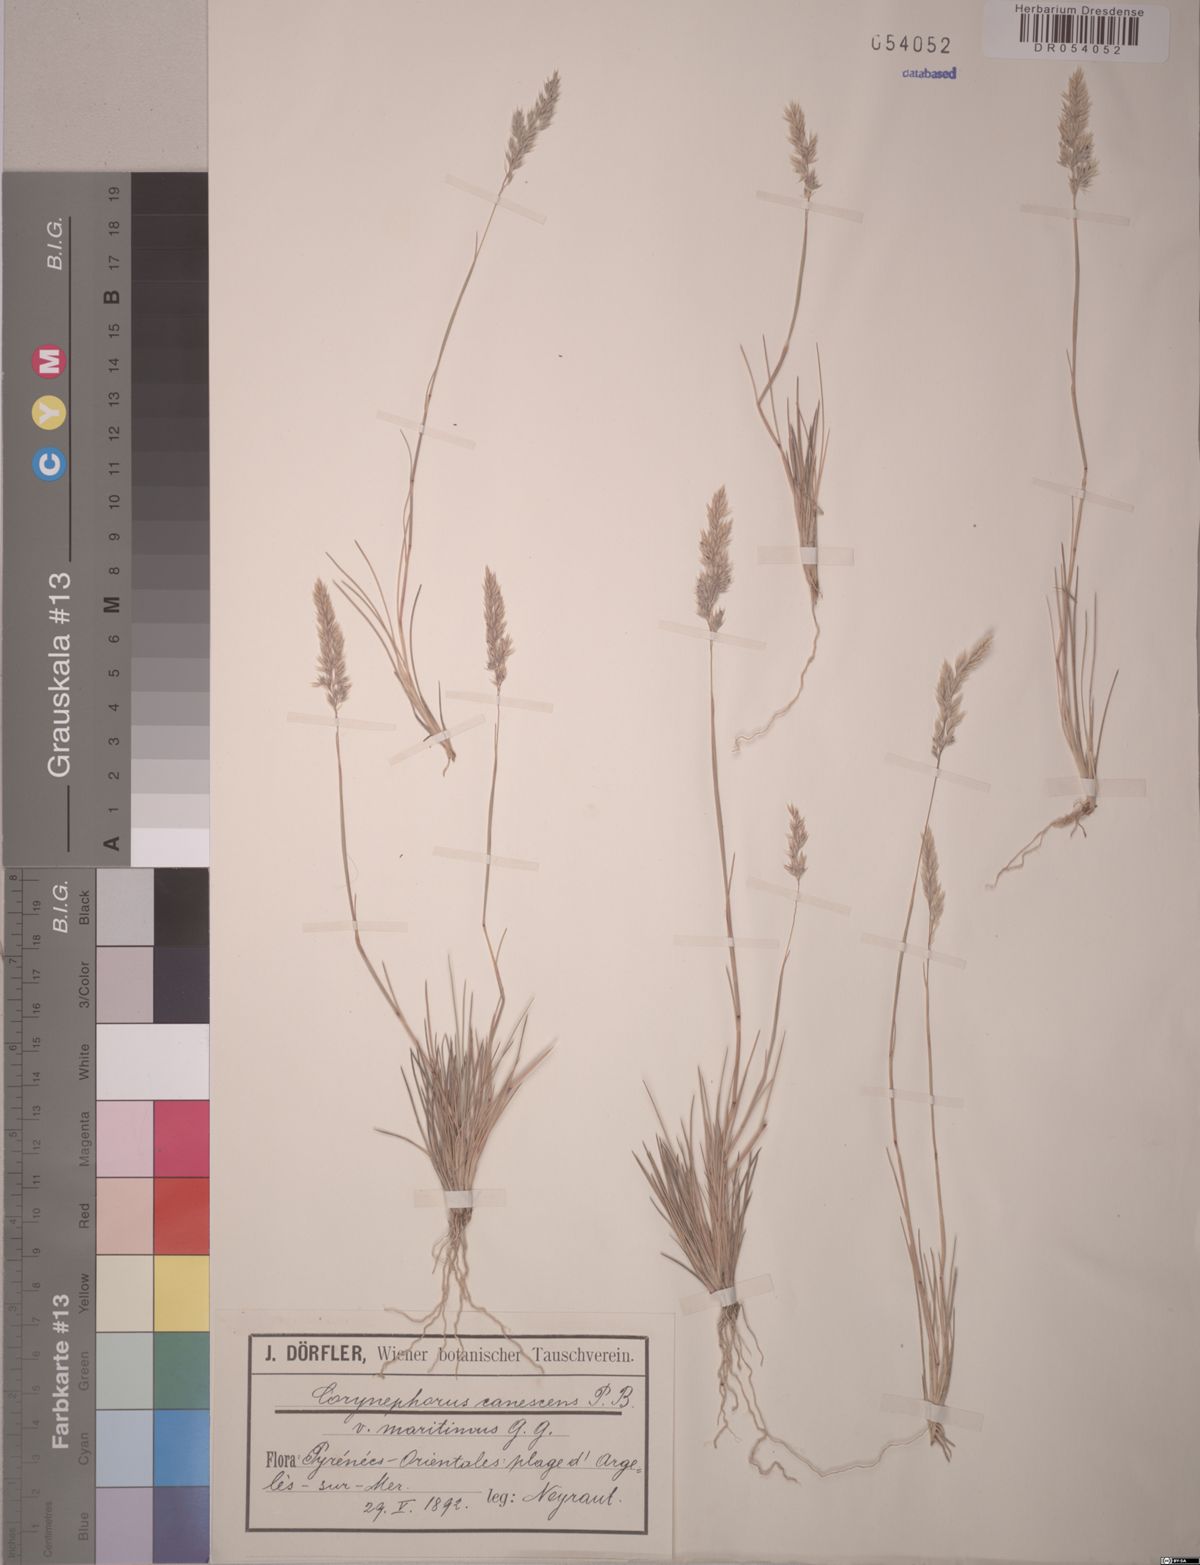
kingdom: Plantae
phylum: Tracheophyta
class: Liliopsida
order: Poales
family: Poaceae
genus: Corynephorus
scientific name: Corynephorus canescens
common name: Grey hair-grass
